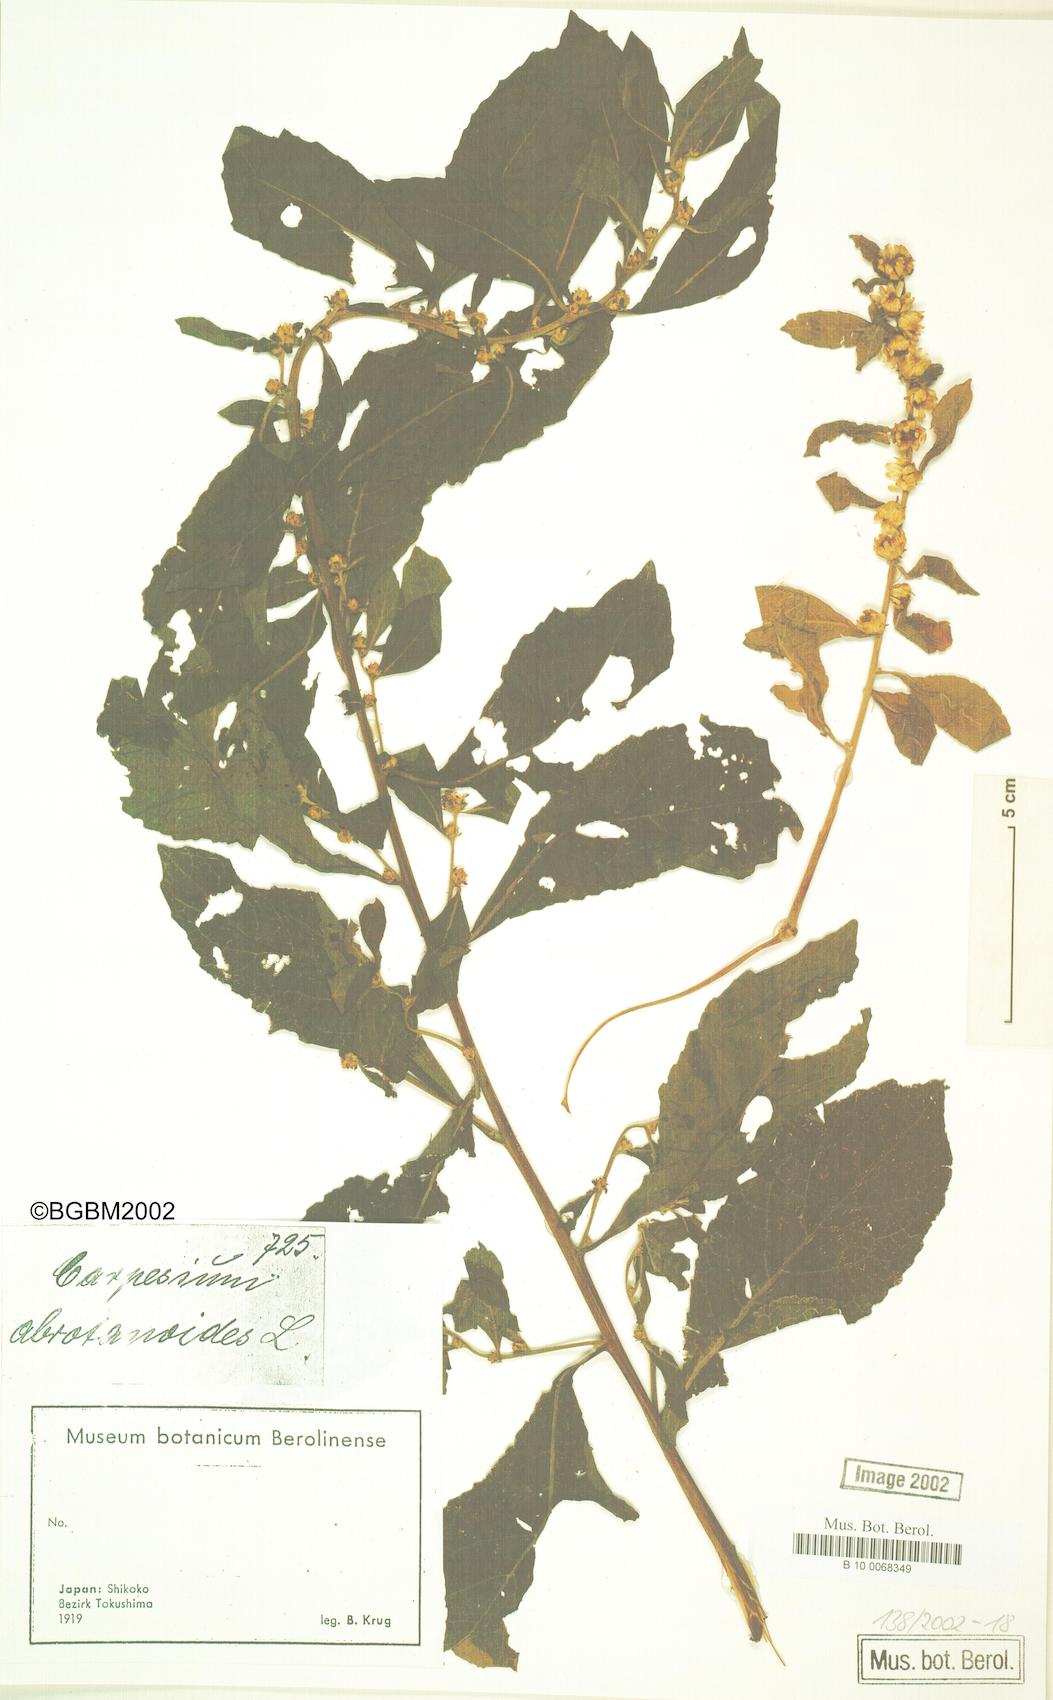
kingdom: Plantae
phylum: Tracheophyta
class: Magnoliopsida
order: Asterales
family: Asteraceae
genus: Carpesium
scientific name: Carpesium abrotanoides
